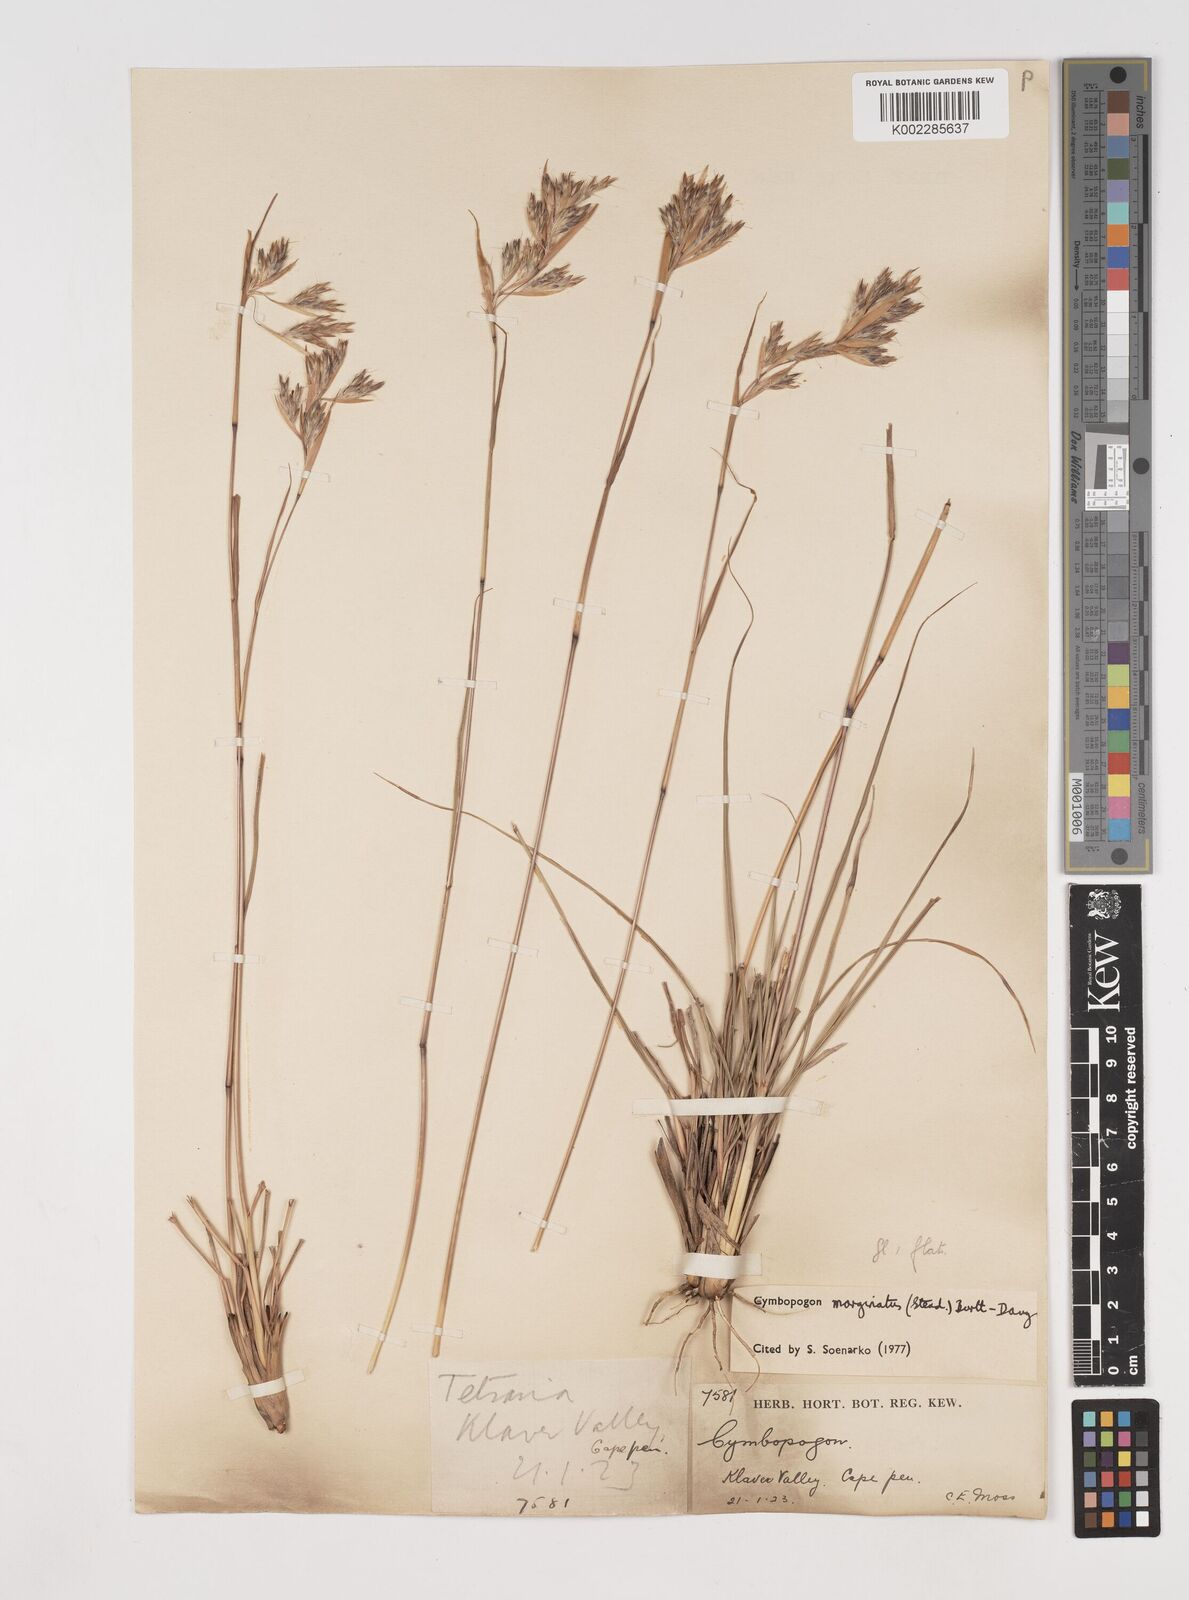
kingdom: Plantae
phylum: Tracheophyta
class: Liliopsida
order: Poales
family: Poaceae
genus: Cymbopogon
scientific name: Cymbopogon marginatus
